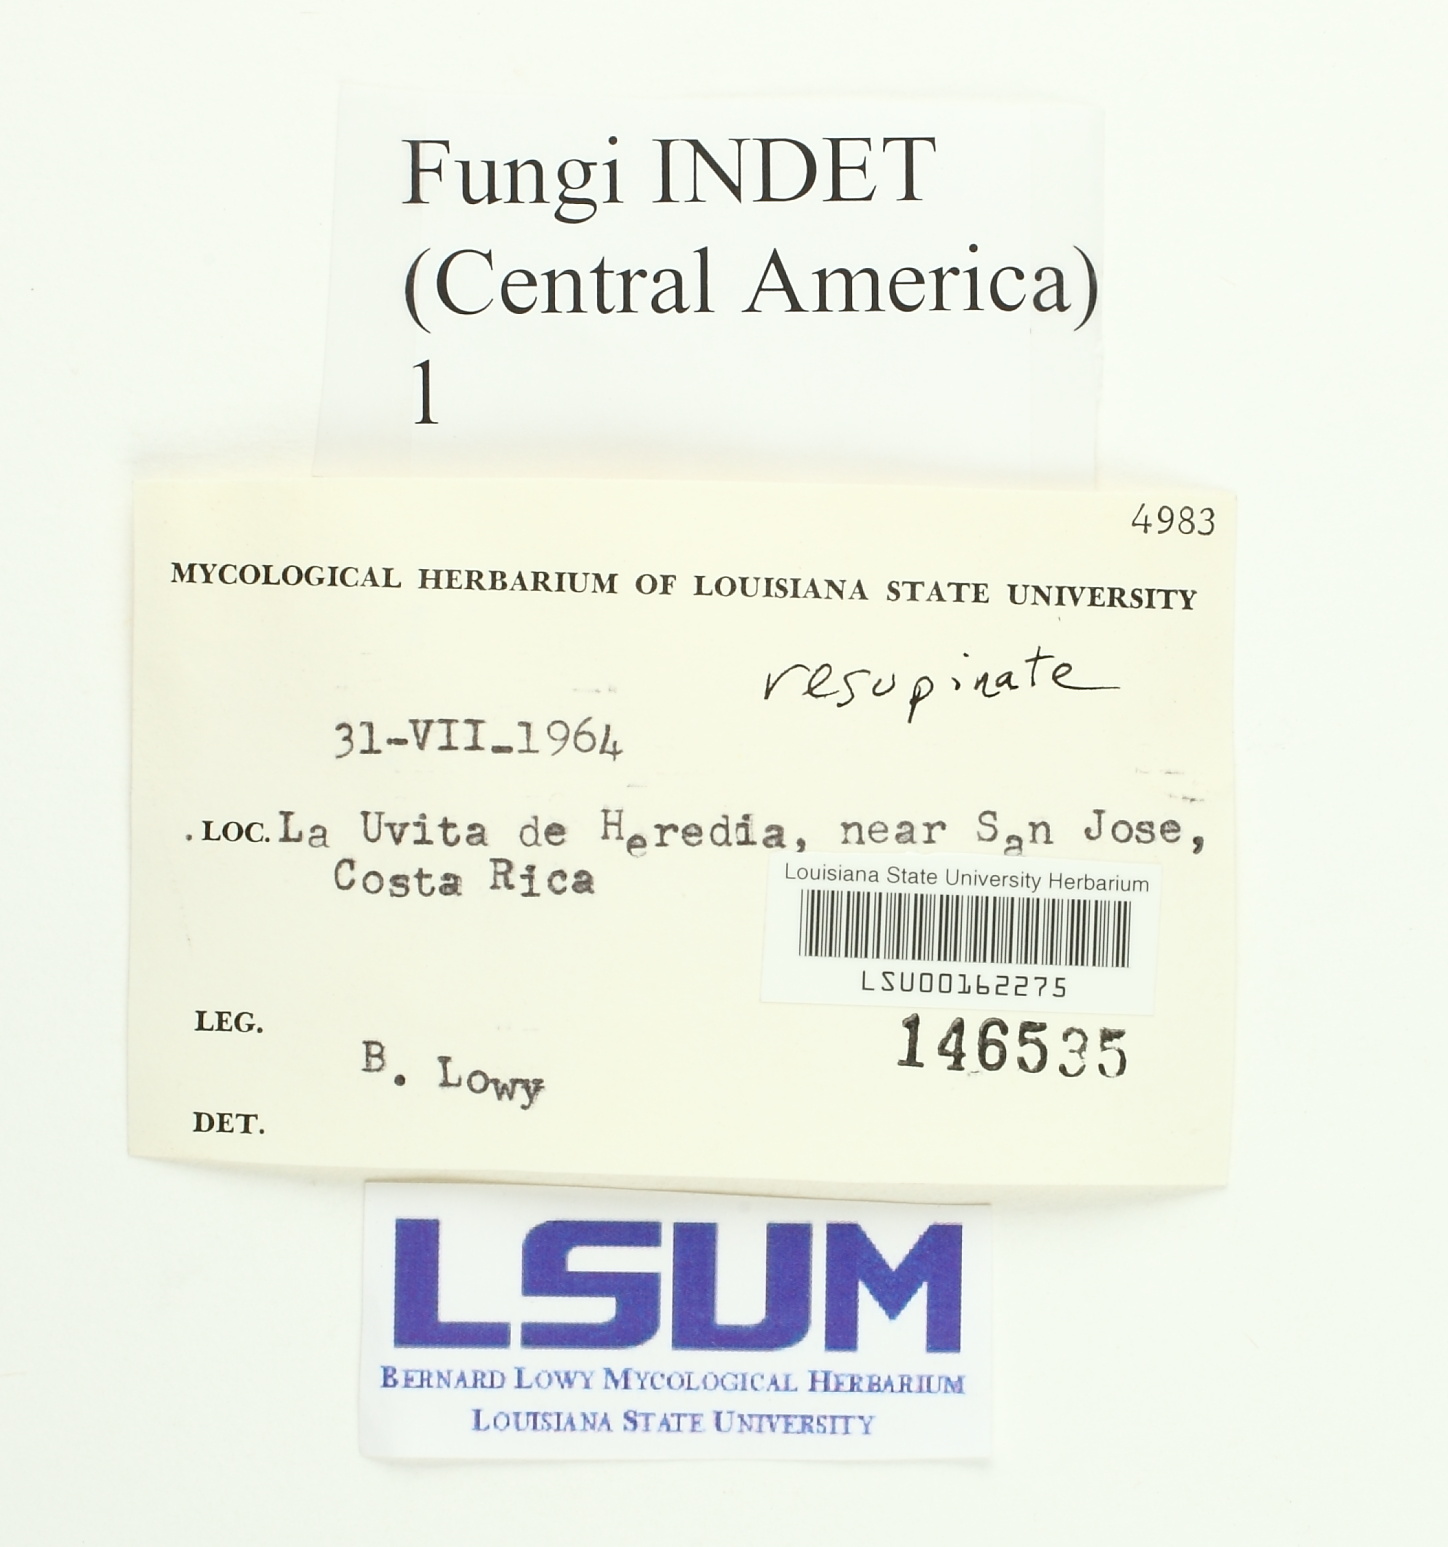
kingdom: Fungi
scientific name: Fungi
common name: Fungi
